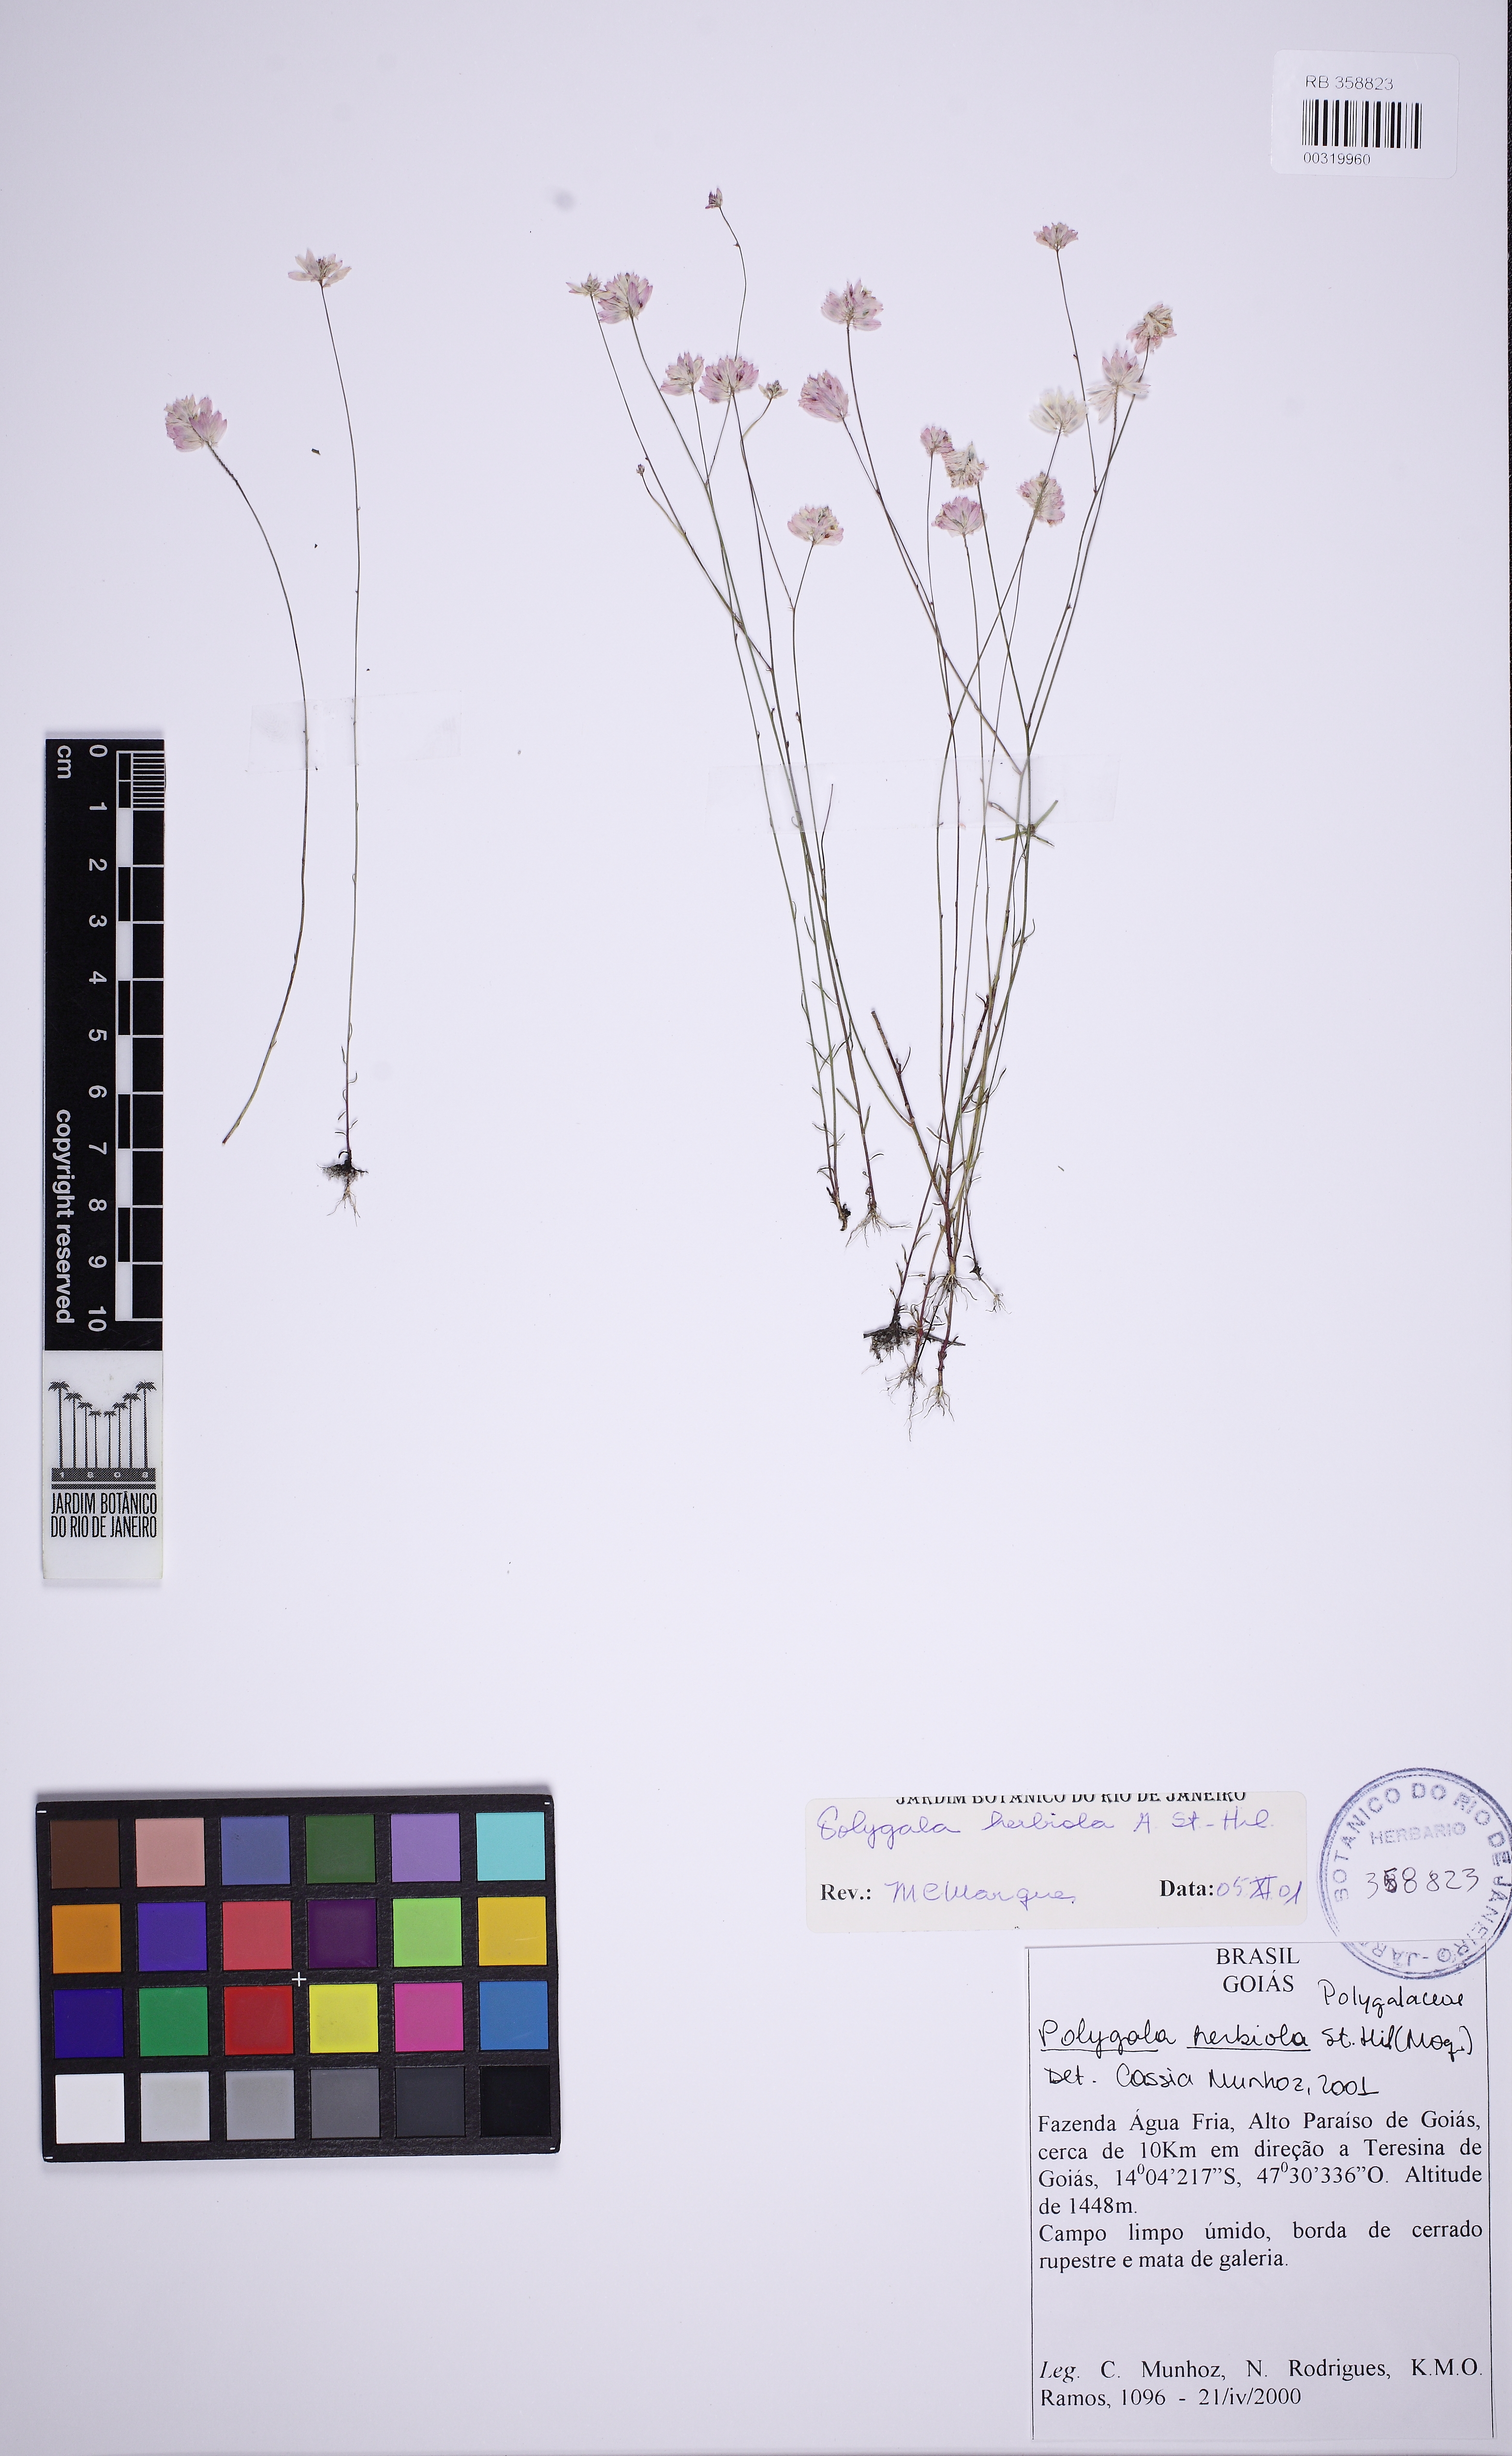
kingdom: Plantae
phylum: Tracheophyta
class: Magnoliopsida
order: Fabales
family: Polygalaceae
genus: Polygala
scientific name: Polygala herbiola
